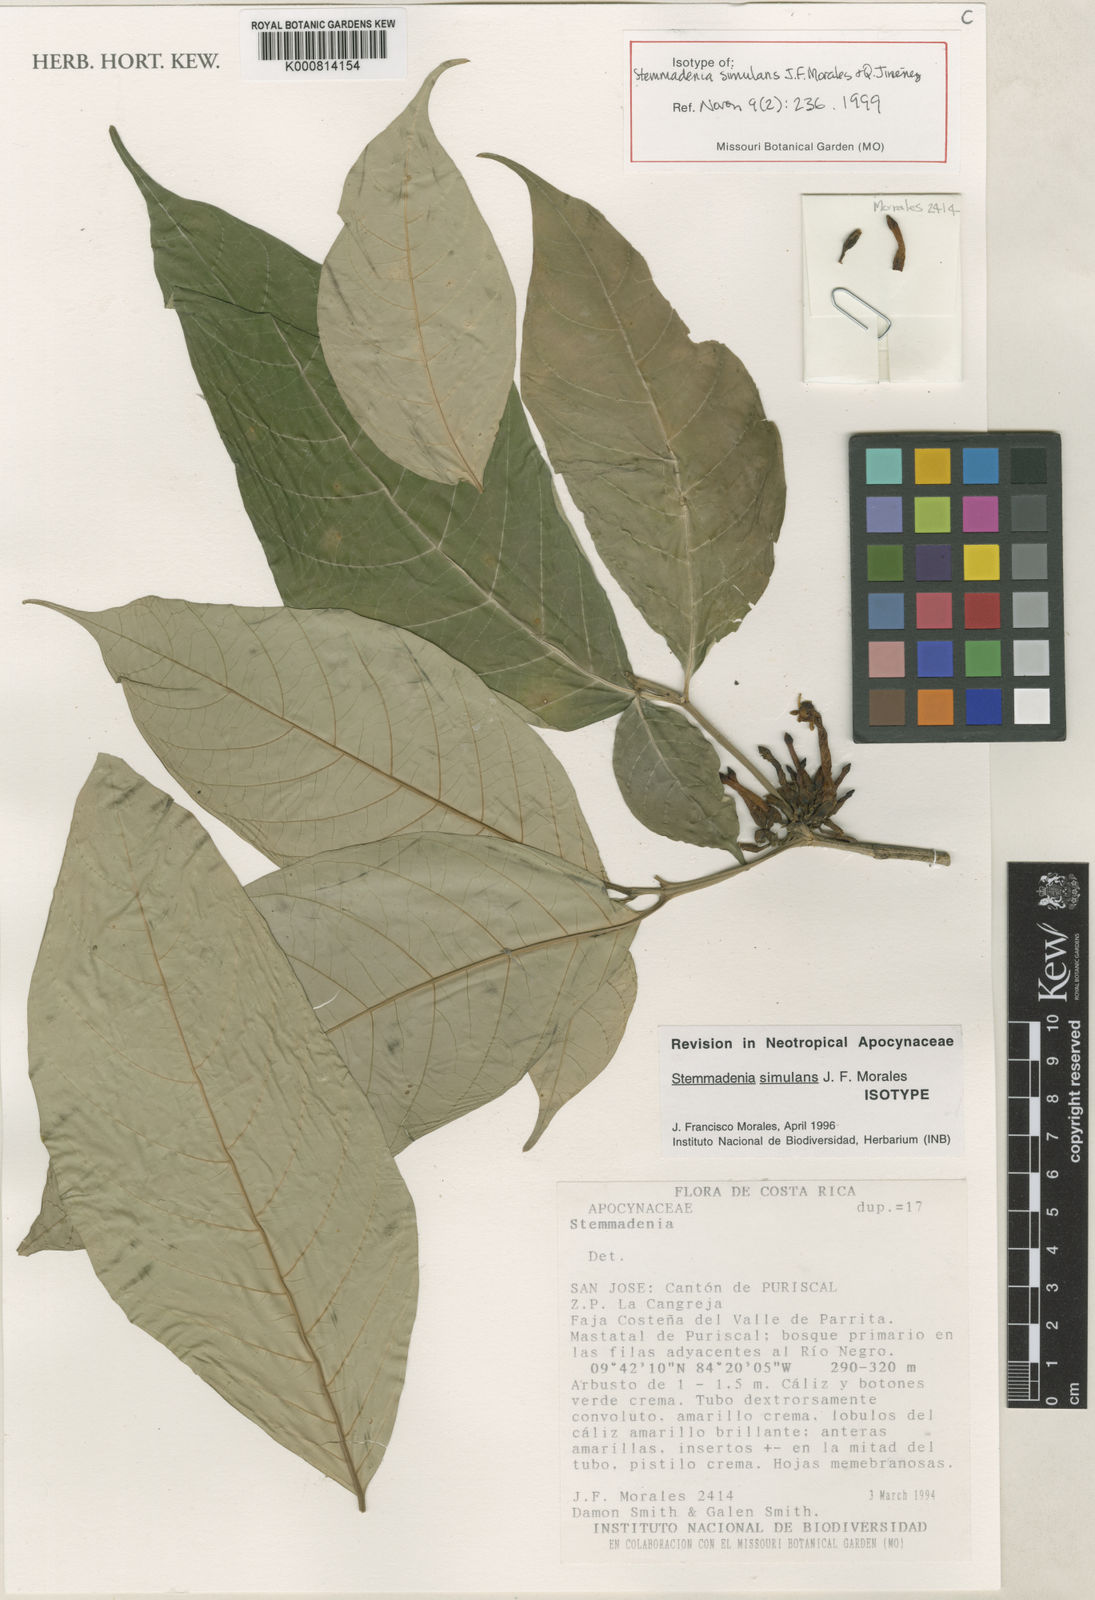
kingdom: Plantae
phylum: Tracheophyta
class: Magnoliopsida
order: Gentianales
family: Apocynaceae
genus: Tabernaemontana
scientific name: Tabernaemontana
